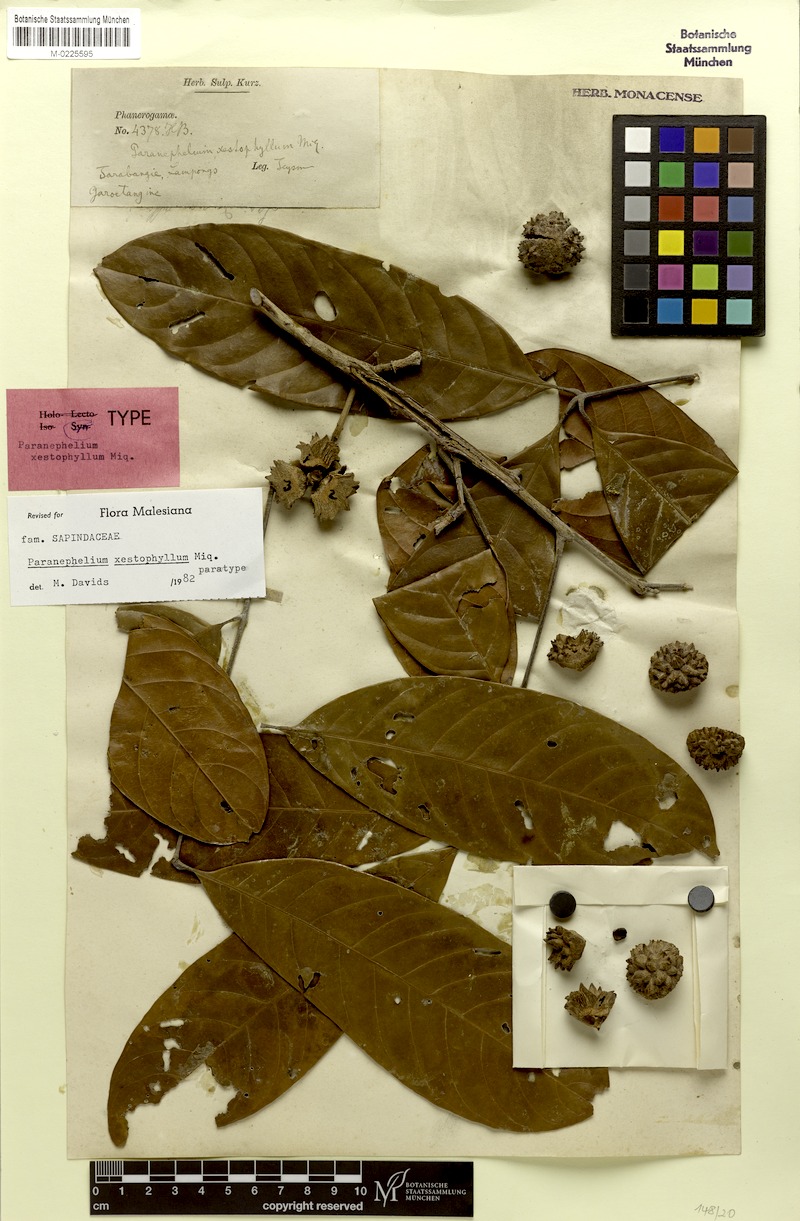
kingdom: Plantae
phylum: Tracheophyta
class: Magnoliopsida
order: Sapindales
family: Sapindaceae
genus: Paranephelium
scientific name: Paranephelium xestophyllum
